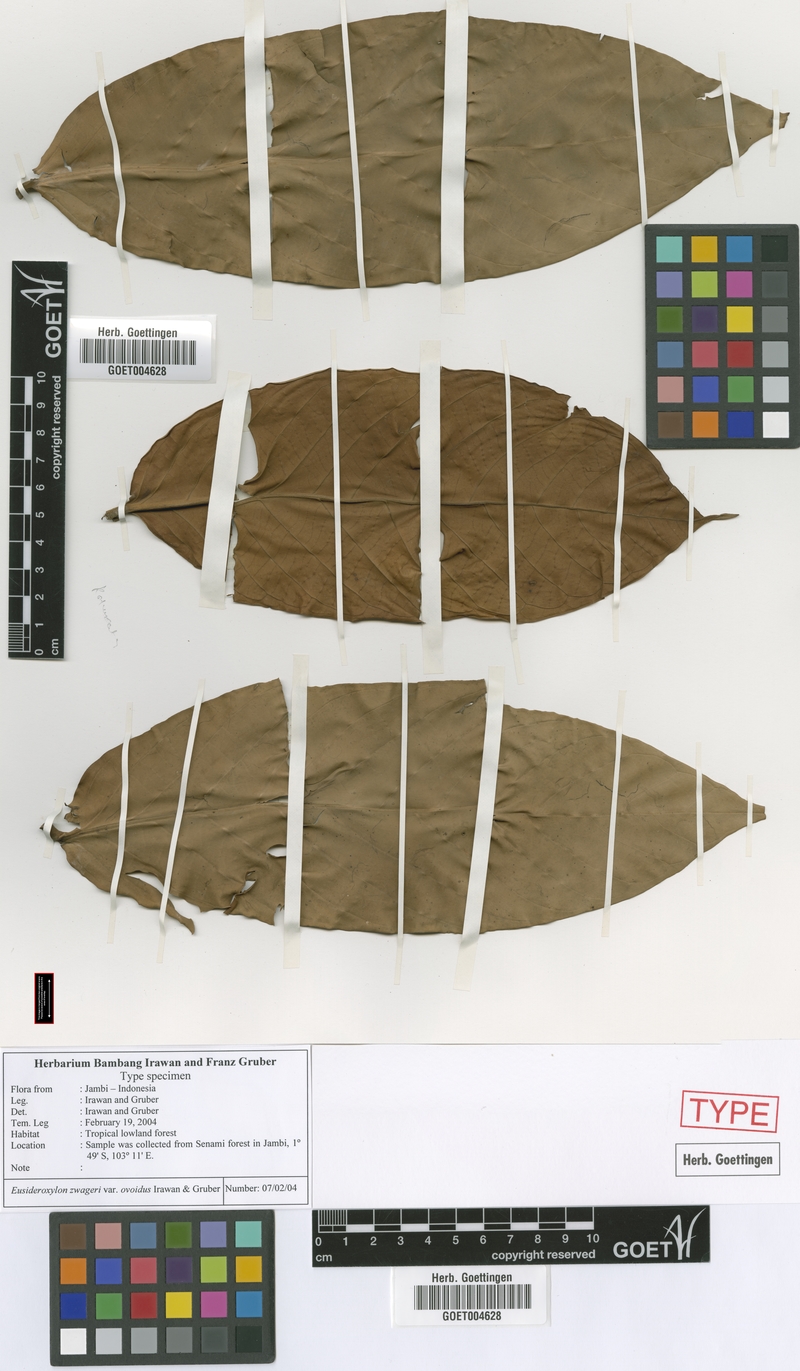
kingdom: Plantae
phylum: Tracheophyta
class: Magnoliopsida
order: Laurales
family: Lauraceae
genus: Eusideroxylon
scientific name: Eusideroxylon zwageri
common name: Borneo ironwood
